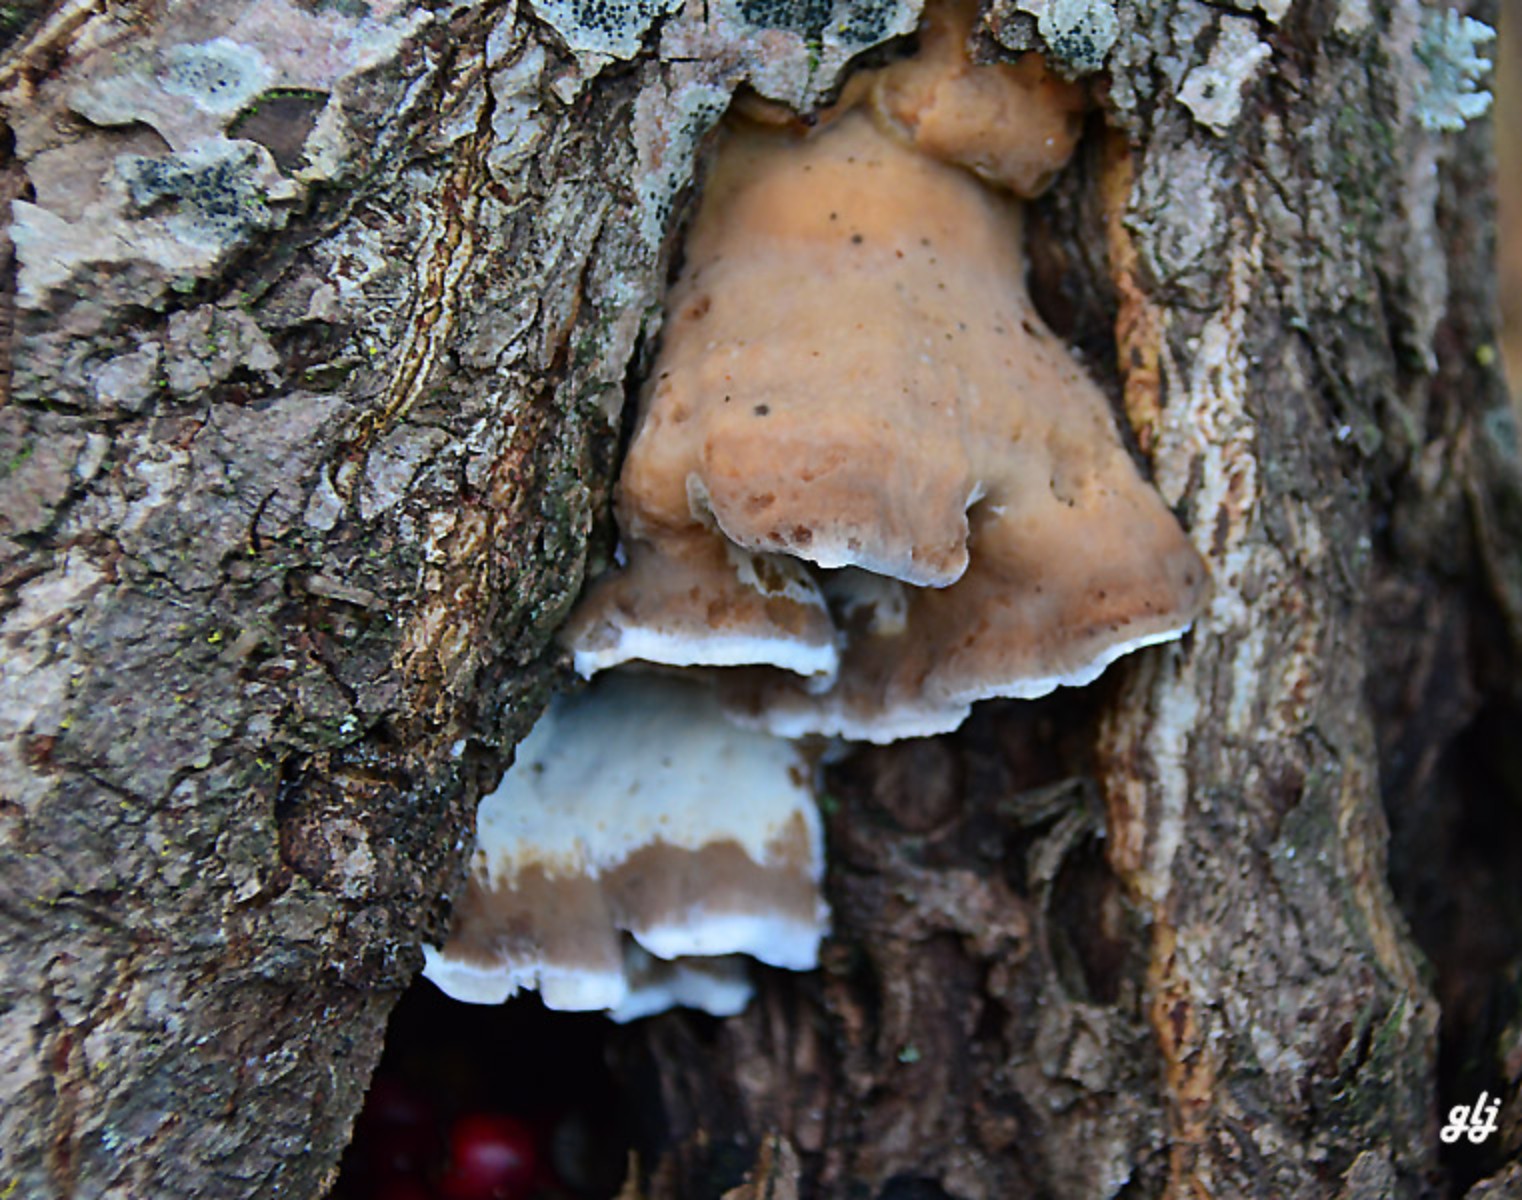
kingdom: Fungi
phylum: Basidiomycota
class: Agaricomycetes
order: Polyporales
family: Phanerochaetaceae
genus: Bjerkandera
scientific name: Bjerkandera fumosa
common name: grågul sodporesvamp
